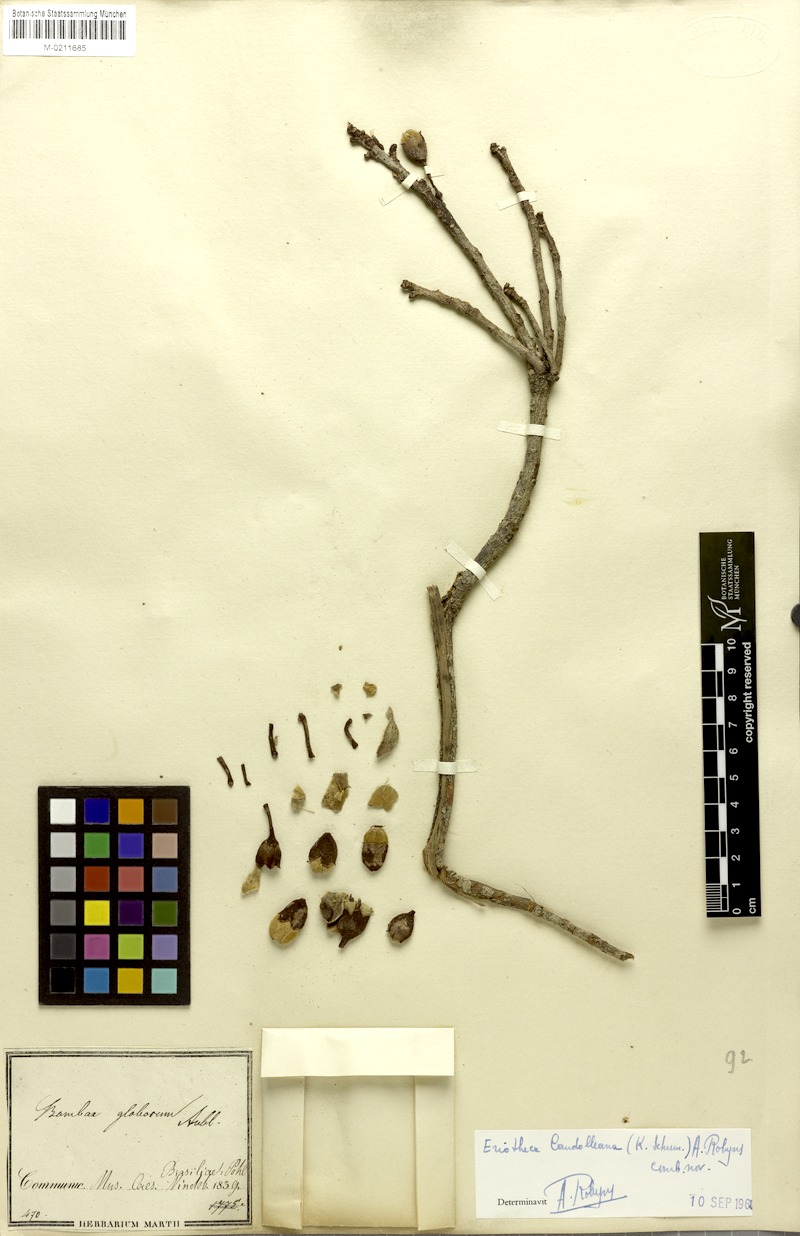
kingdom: Plantae
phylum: Tracheophyta
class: Magnoliopsida
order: Malvales
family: Malvaceae
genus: Eriotheca
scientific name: Eriotheca candolleana
